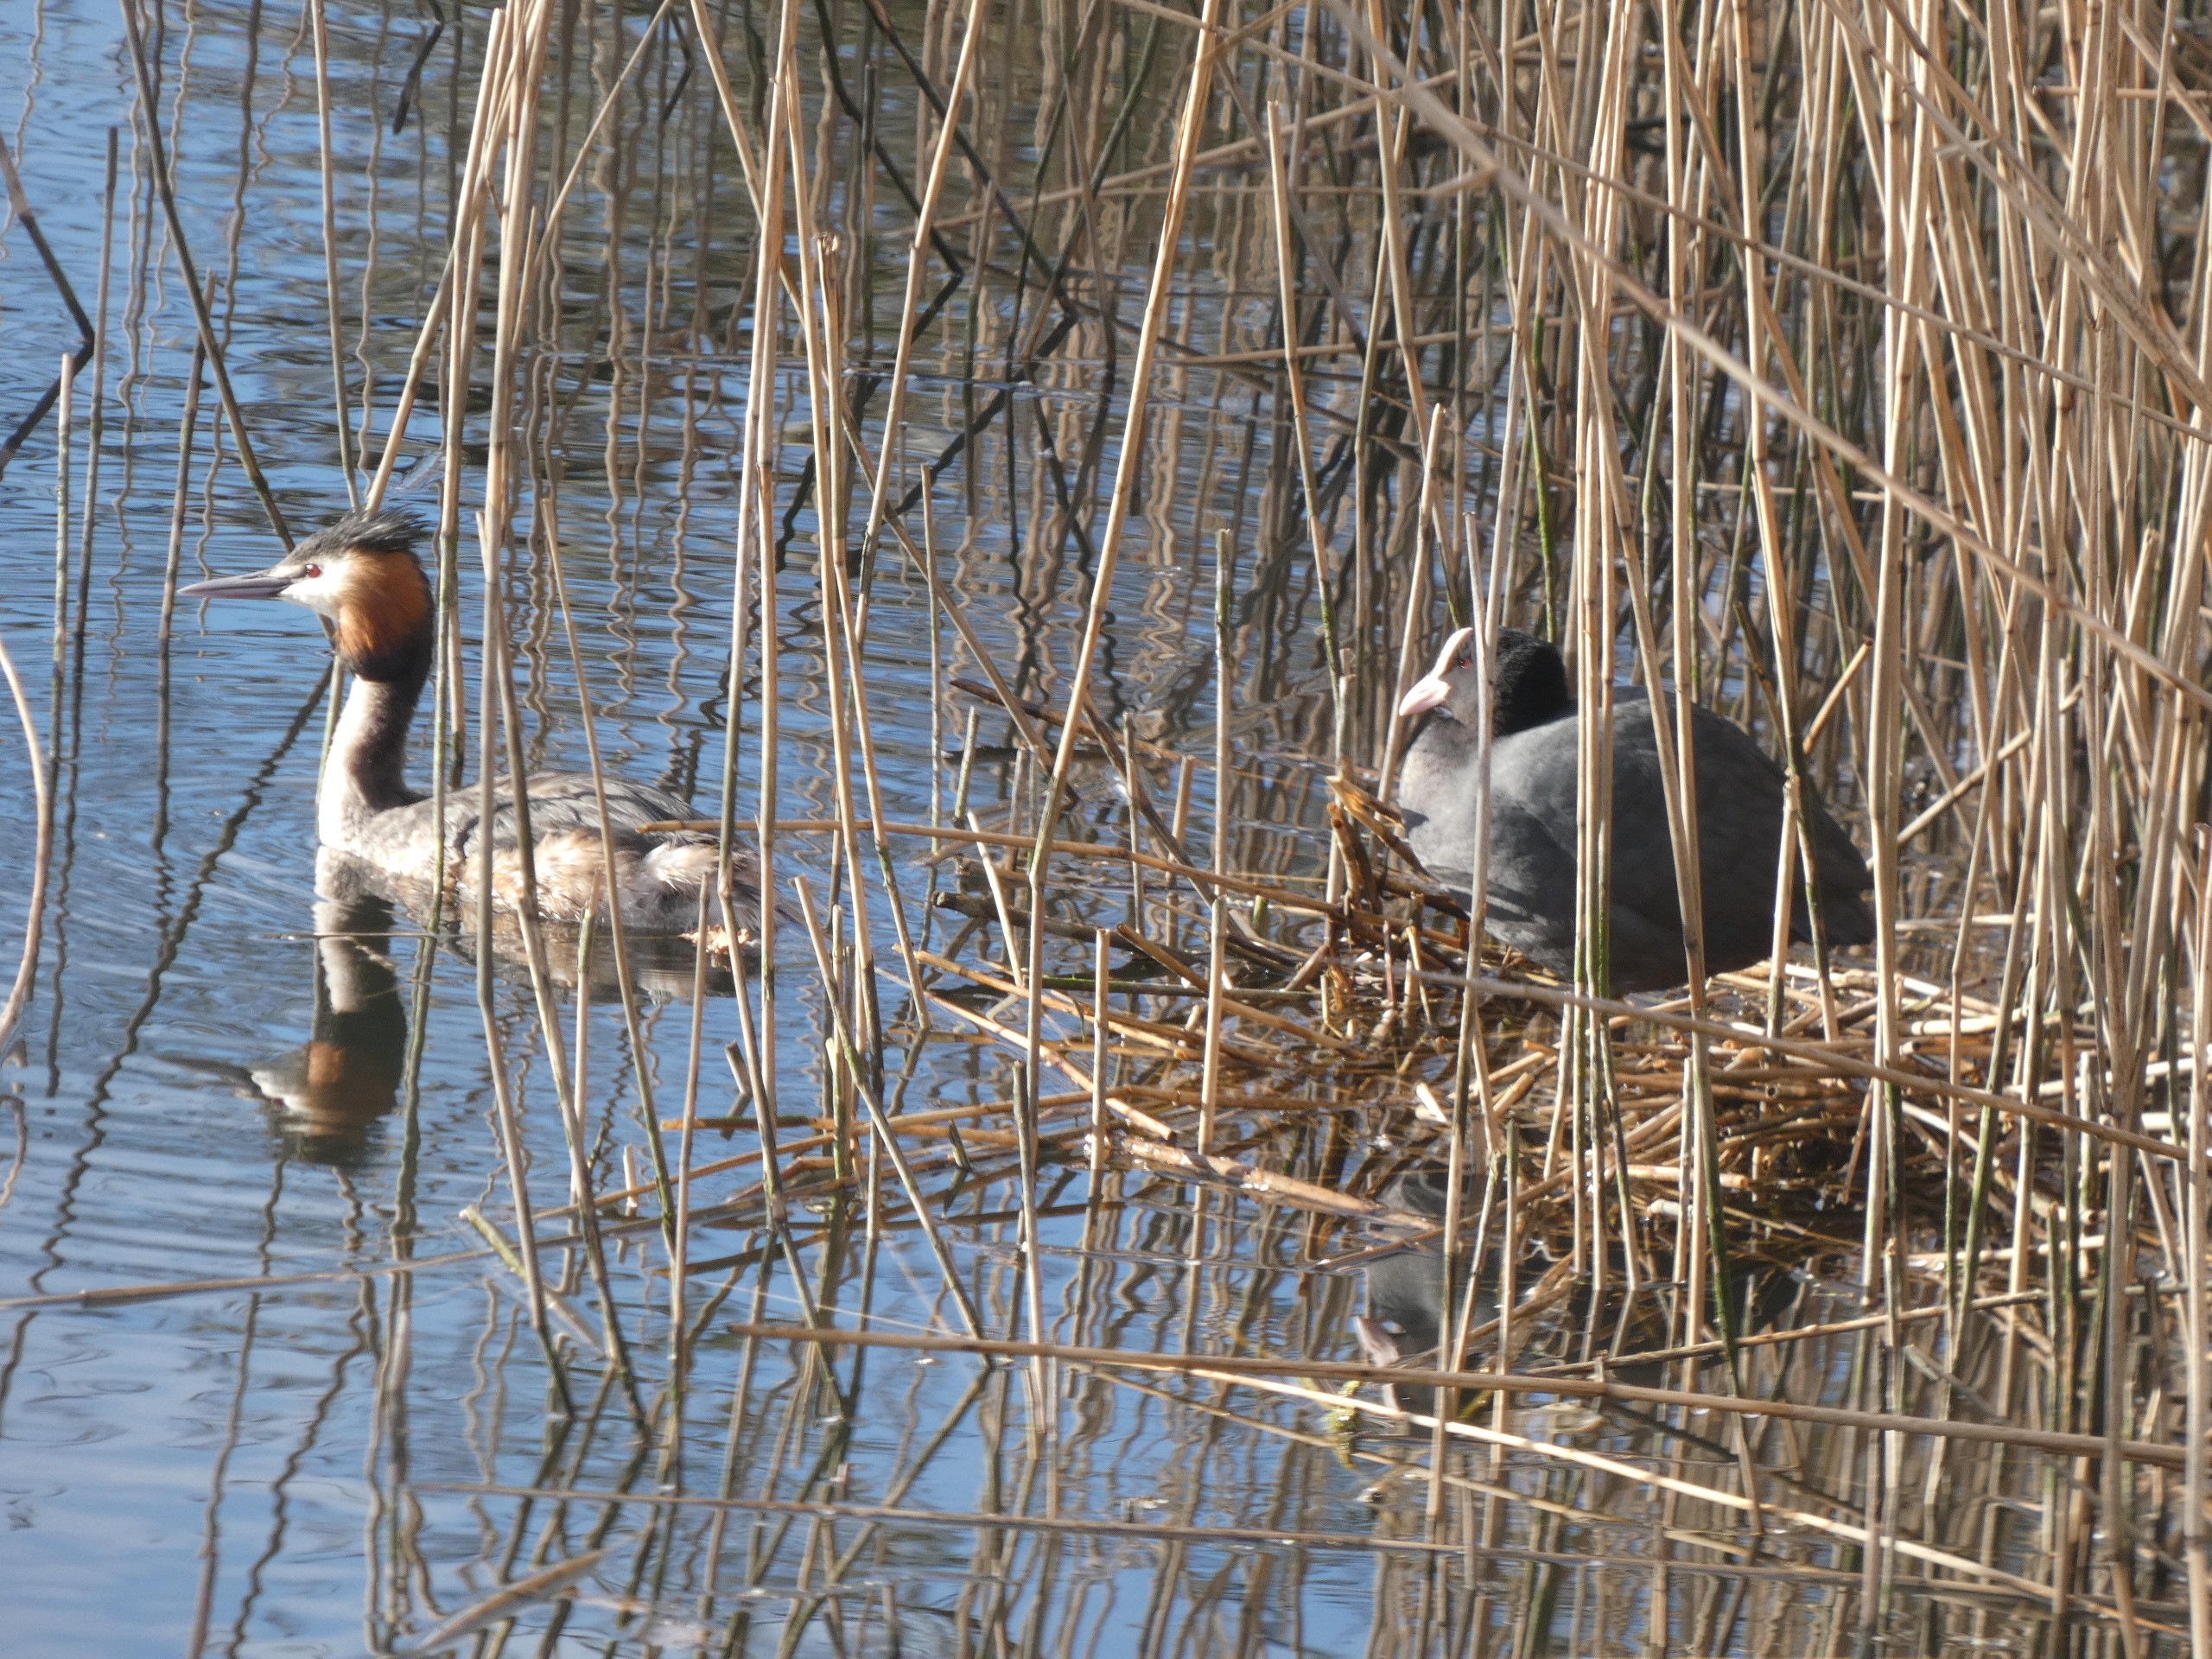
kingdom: Animalia
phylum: Chordata
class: Aves
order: Gruiformes
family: Rallidae
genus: Fulica
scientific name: Fulica atra
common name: Blishøne
